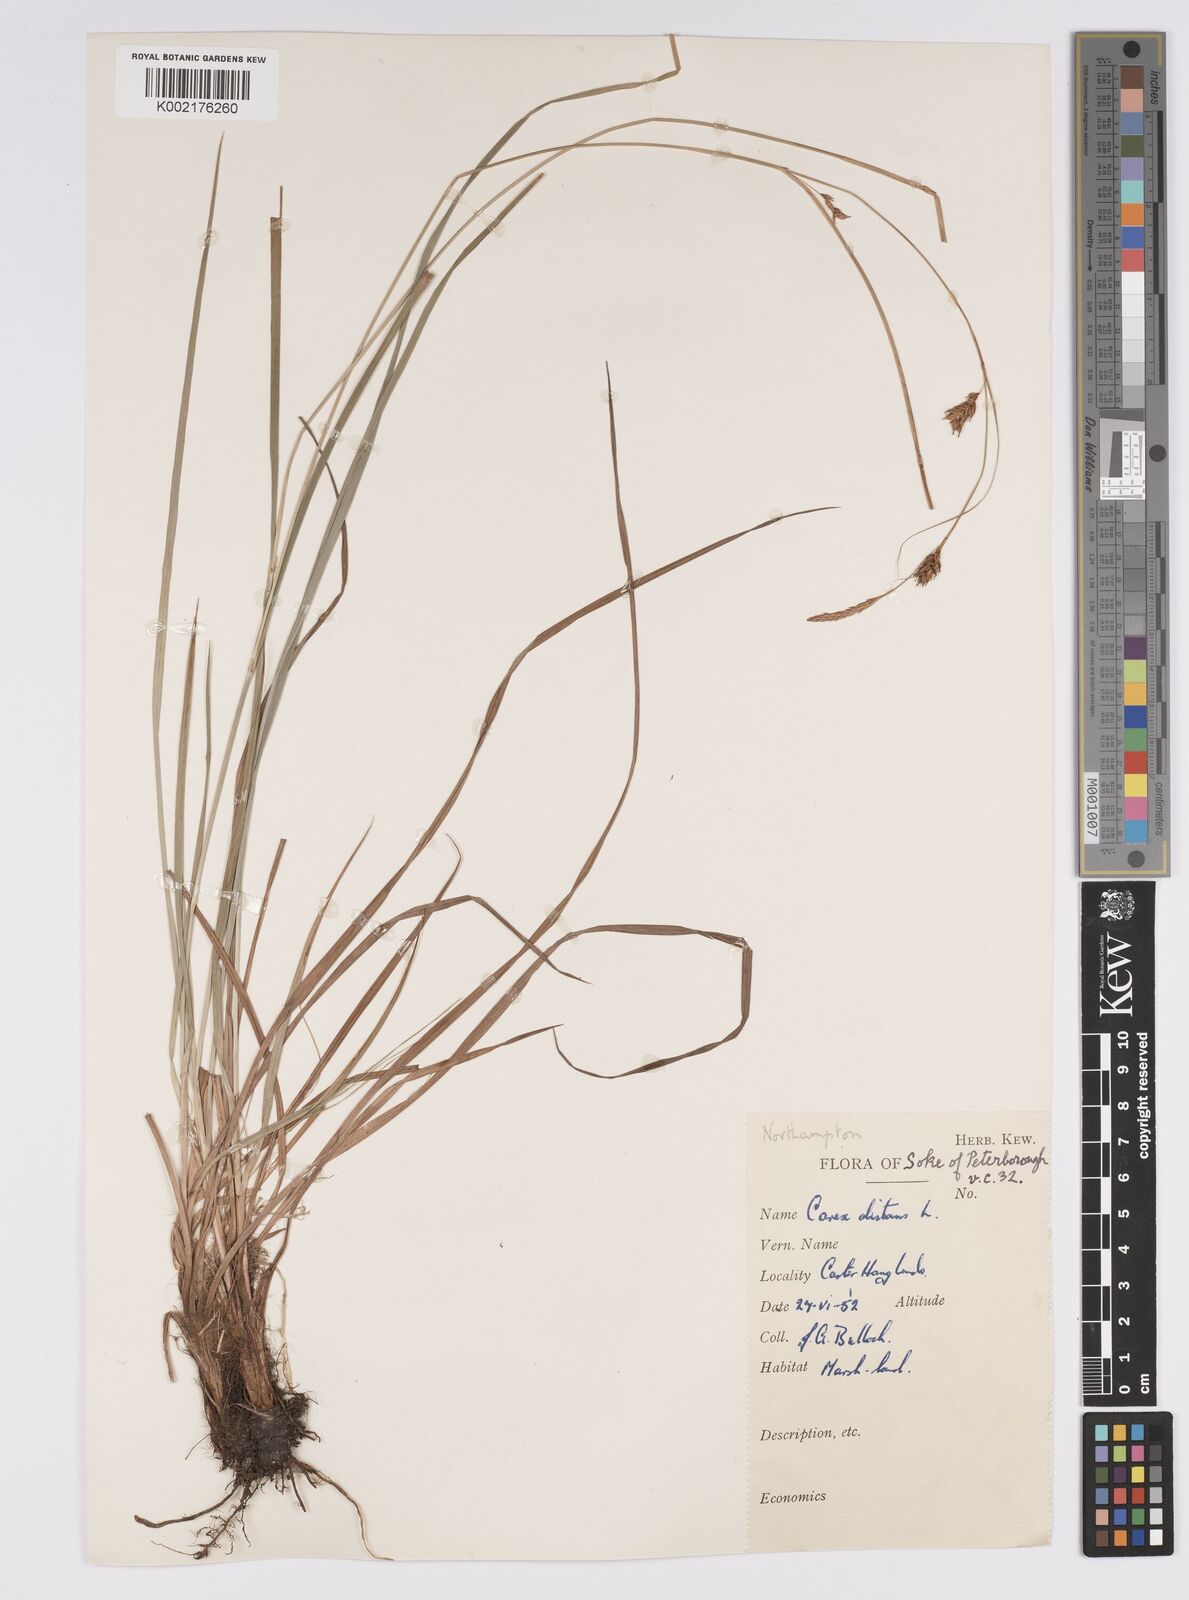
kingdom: Plantae
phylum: Tracheophyta
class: Liliopsida
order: Poales
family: Cyperaceae
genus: Carex
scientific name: Carex distans
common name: Distant sedge
